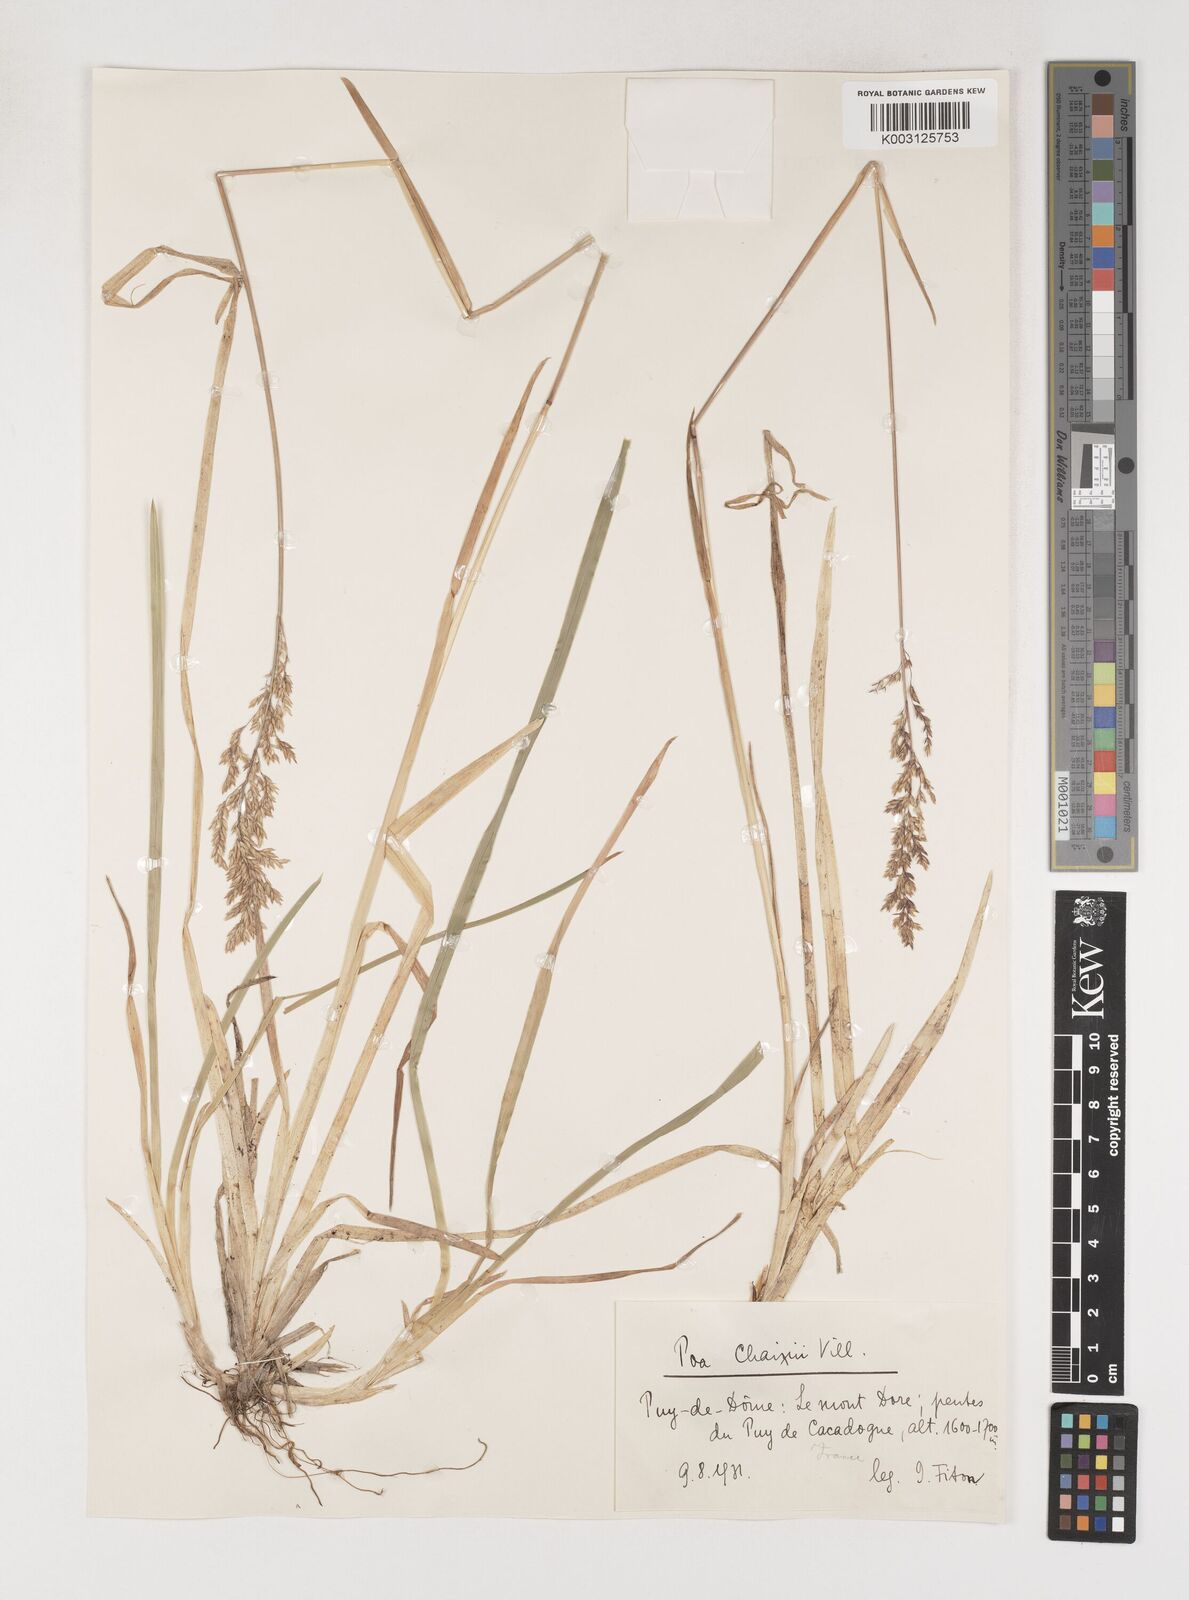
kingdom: Plantae
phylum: Tracheophyta
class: Liliopsida
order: Poales
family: Poaceae
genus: Poa
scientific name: Poa chaixii
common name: Broad-leaved meadow-grass
